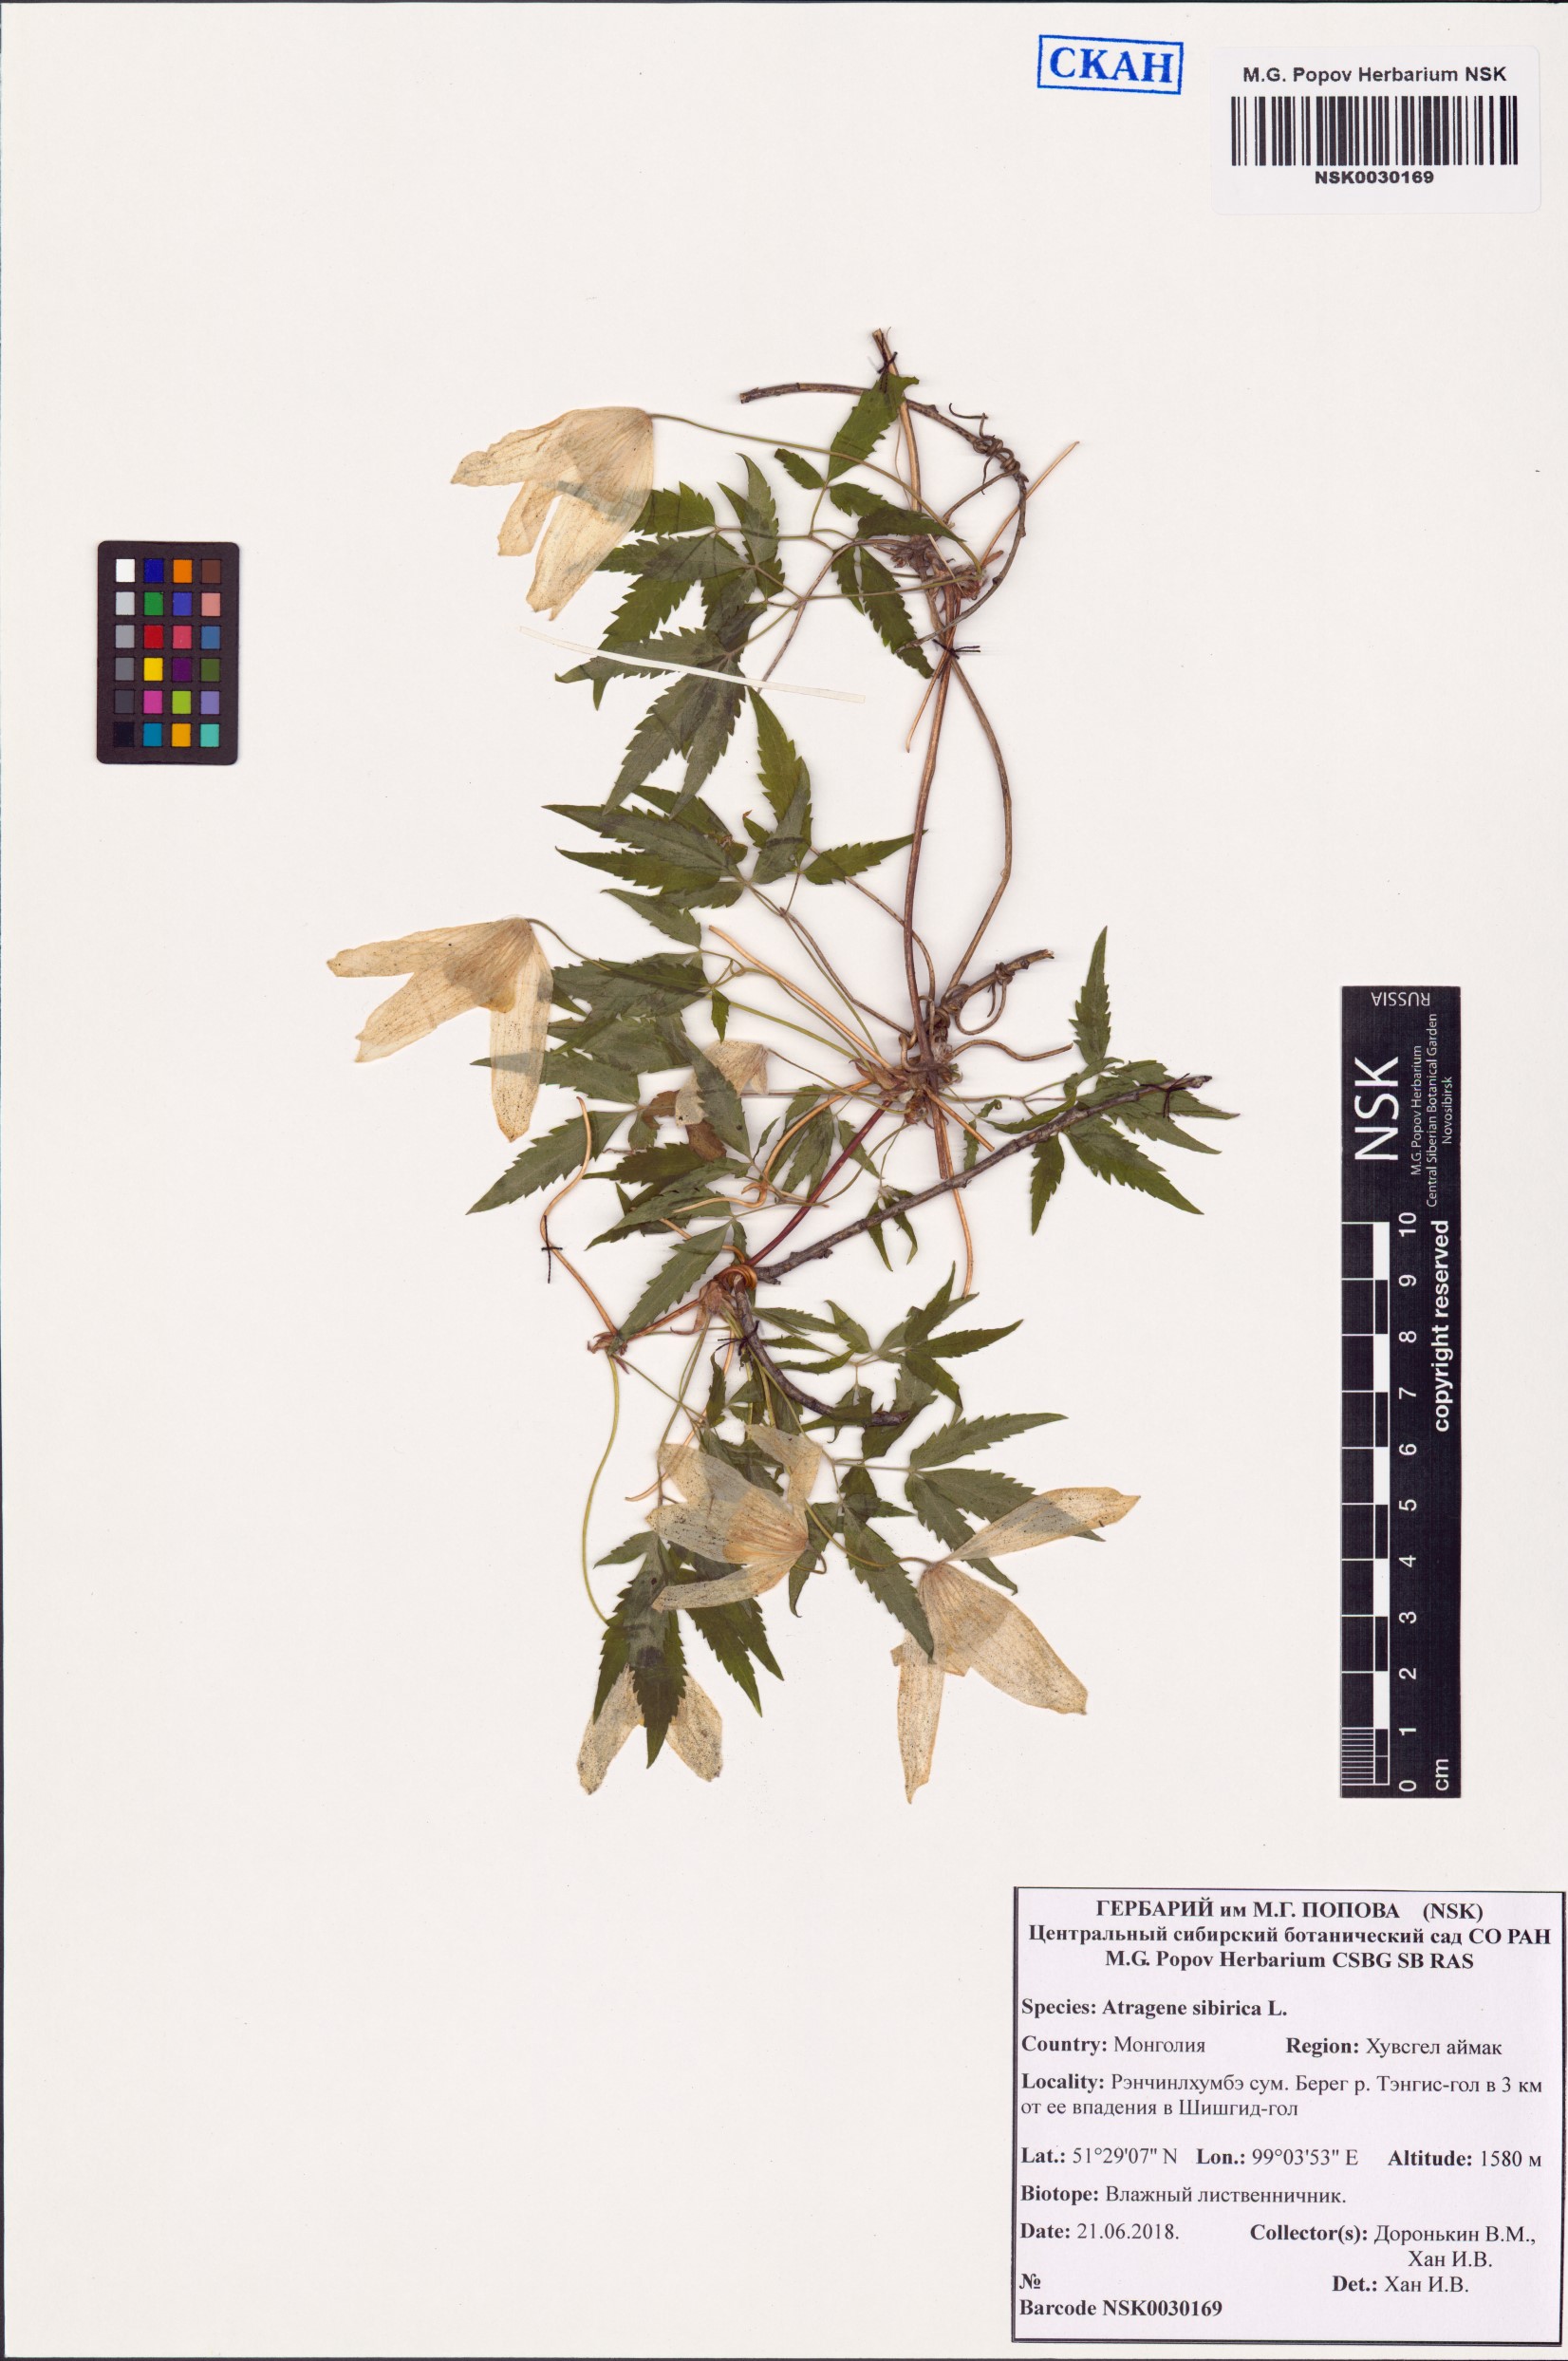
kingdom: Plantae
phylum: Tracheophyta
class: Magnoliopsida
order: Ranunculales
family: Ranunculaceae
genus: Clematis
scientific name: Clematis sibirica
